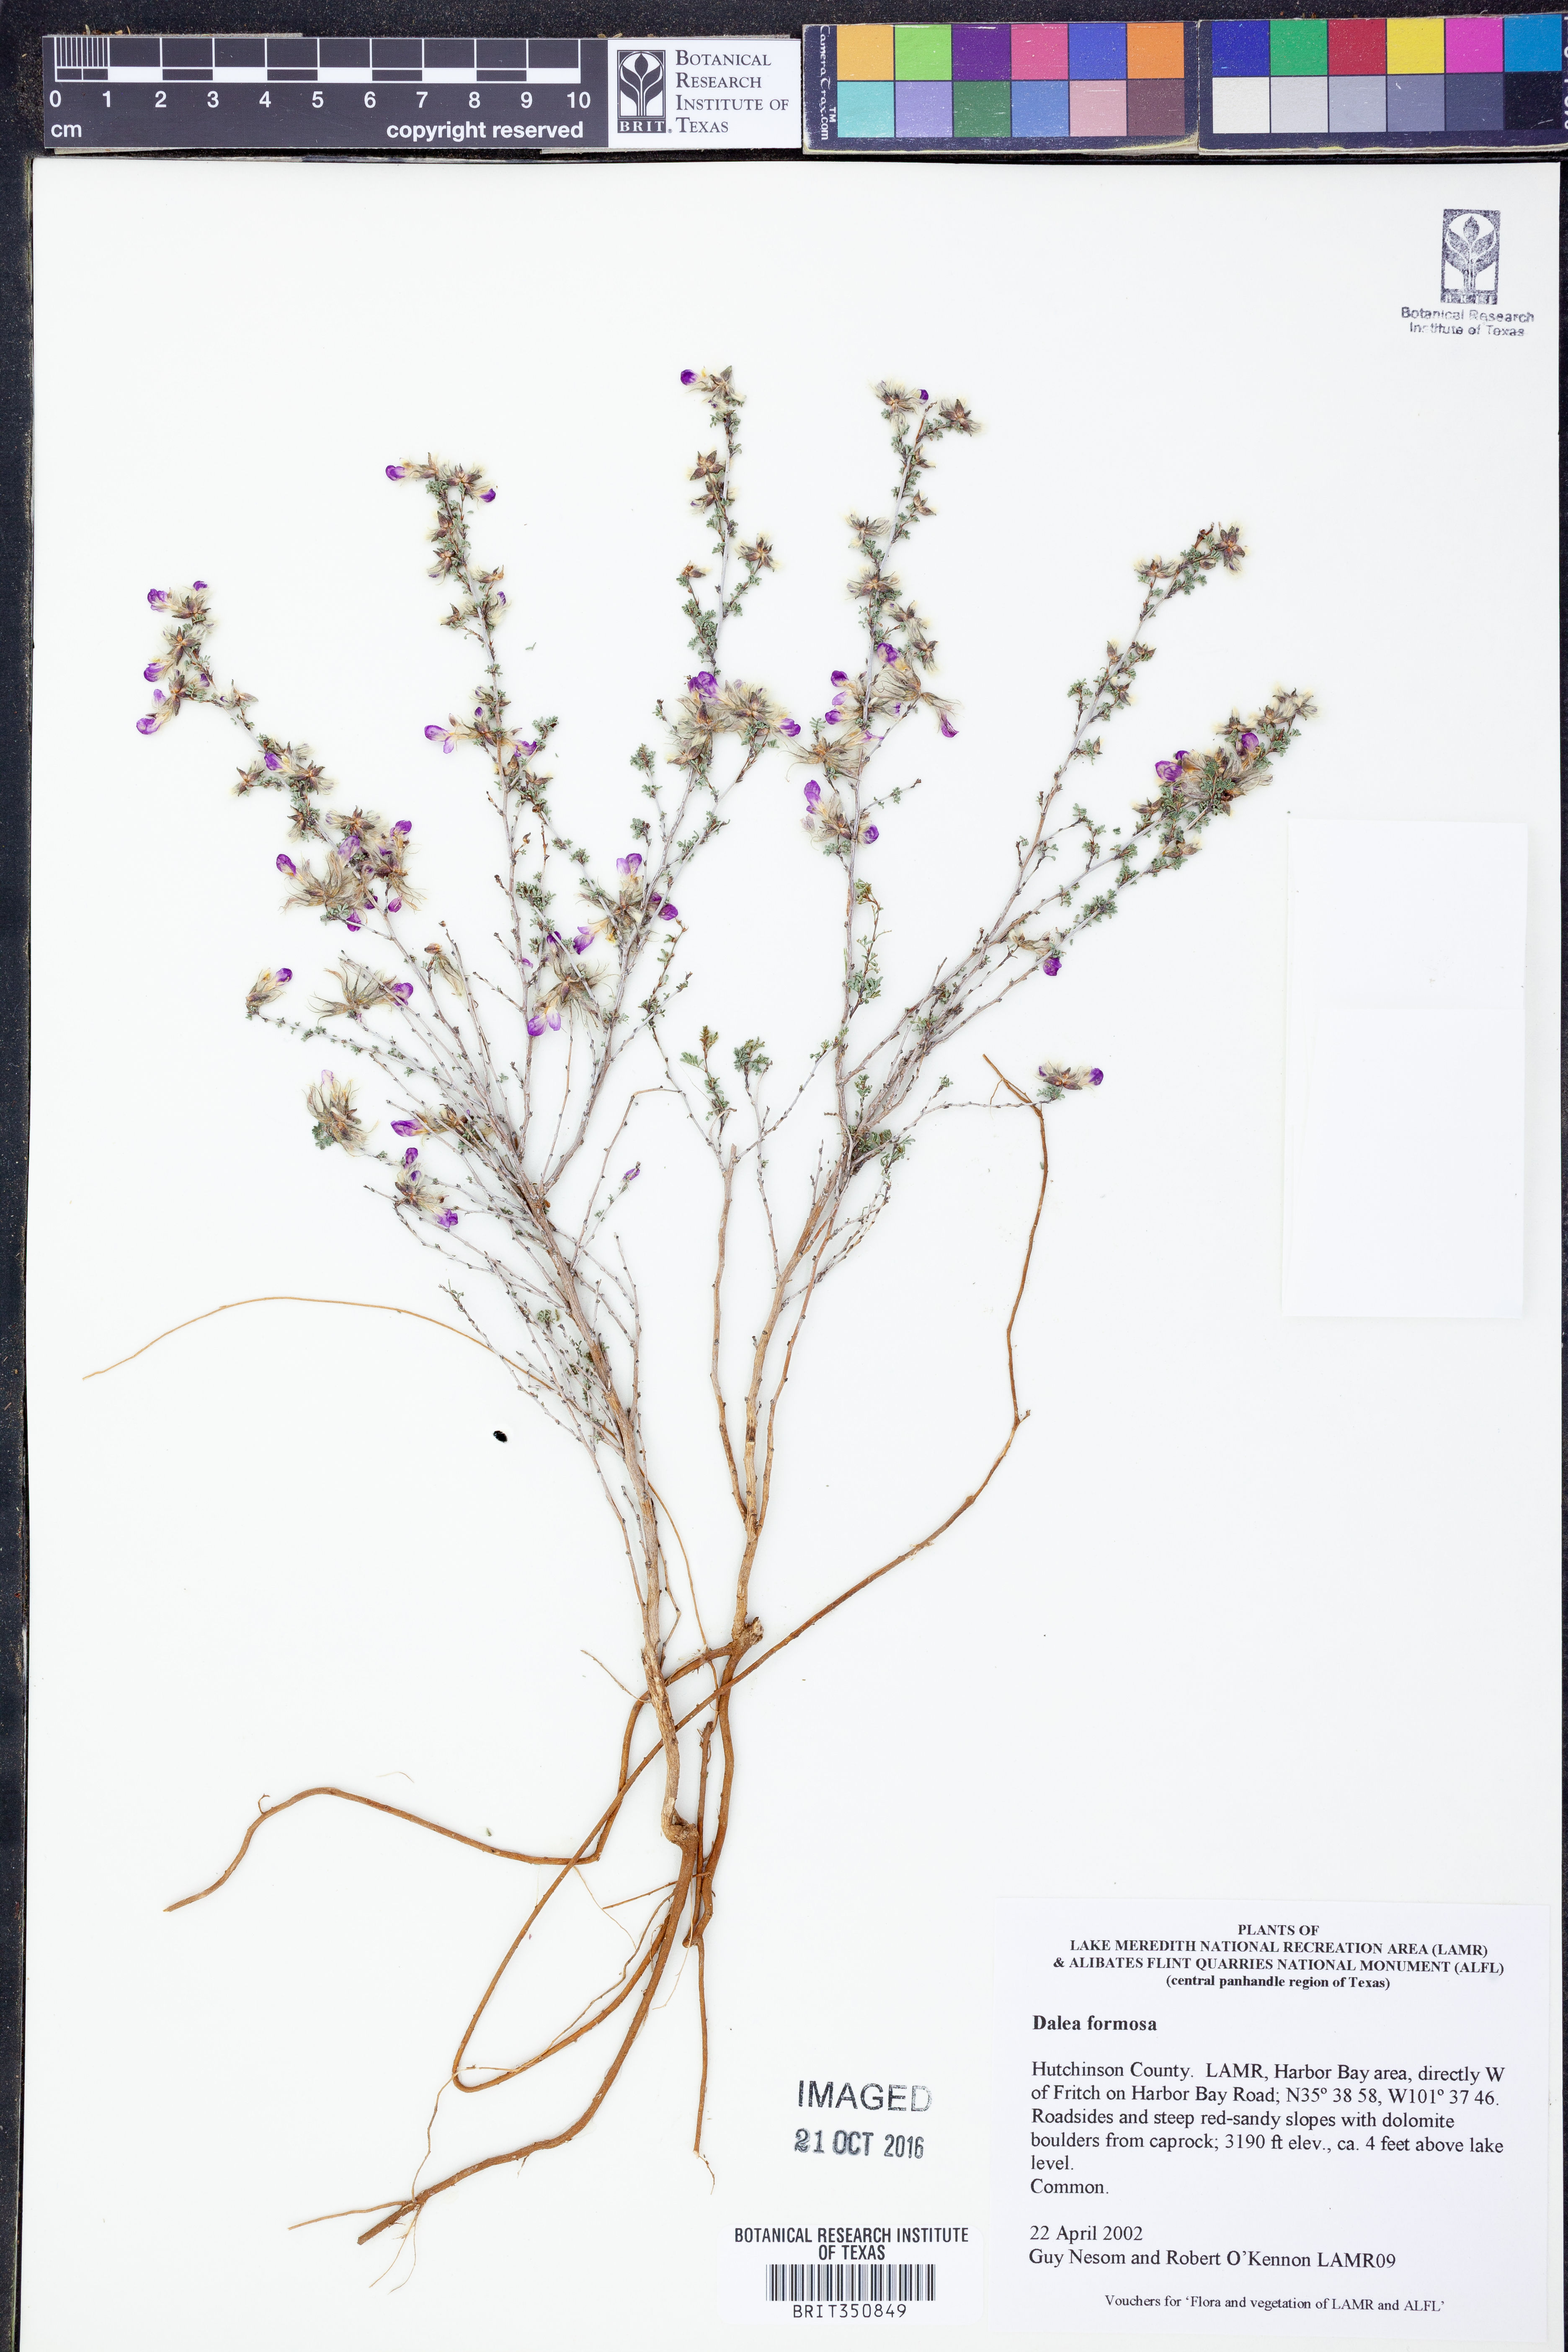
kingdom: Plantae
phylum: Tracheophyta
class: Magnoliopsida
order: Fabales
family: Fabaceae
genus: Dalea
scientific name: Dalea formosa
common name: Feather-plume dalea
